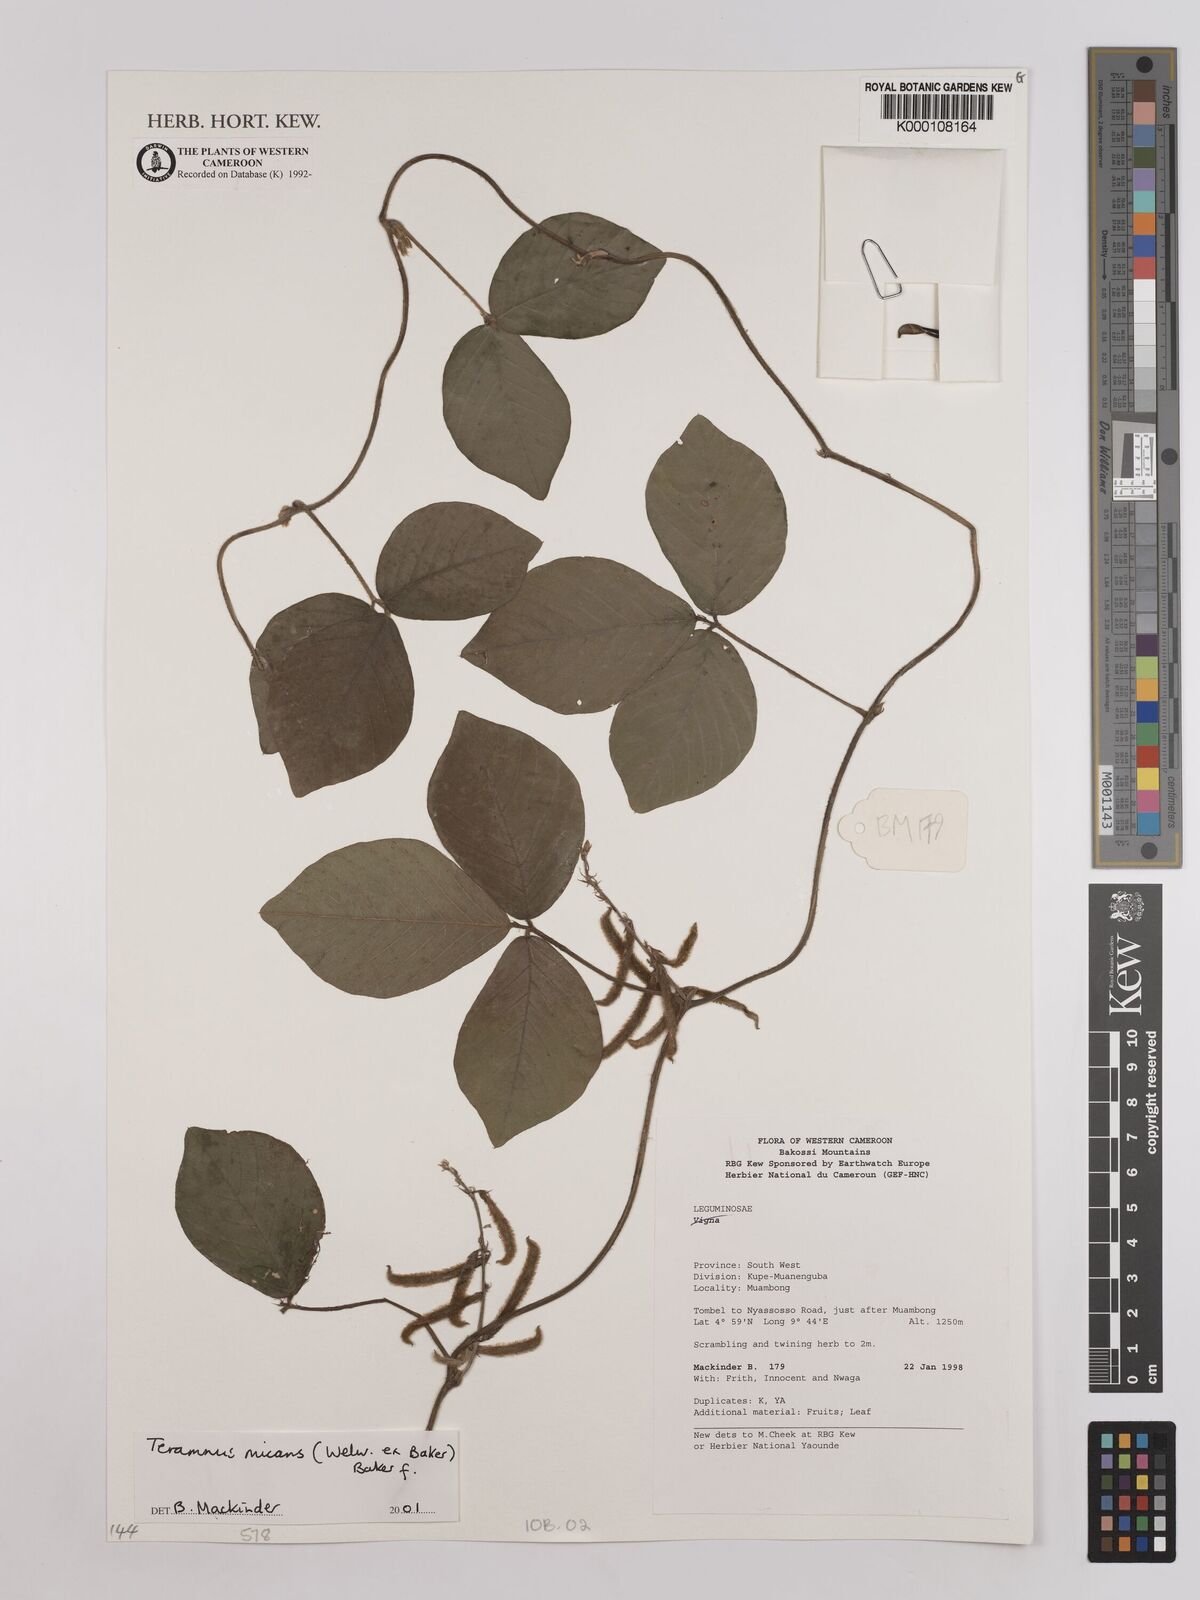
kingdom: Plantae
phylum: Tracheophyta
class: Magnoliopsida
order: Fabales
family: Fabaceae
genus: Teramnus
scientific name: Teramnus micans
